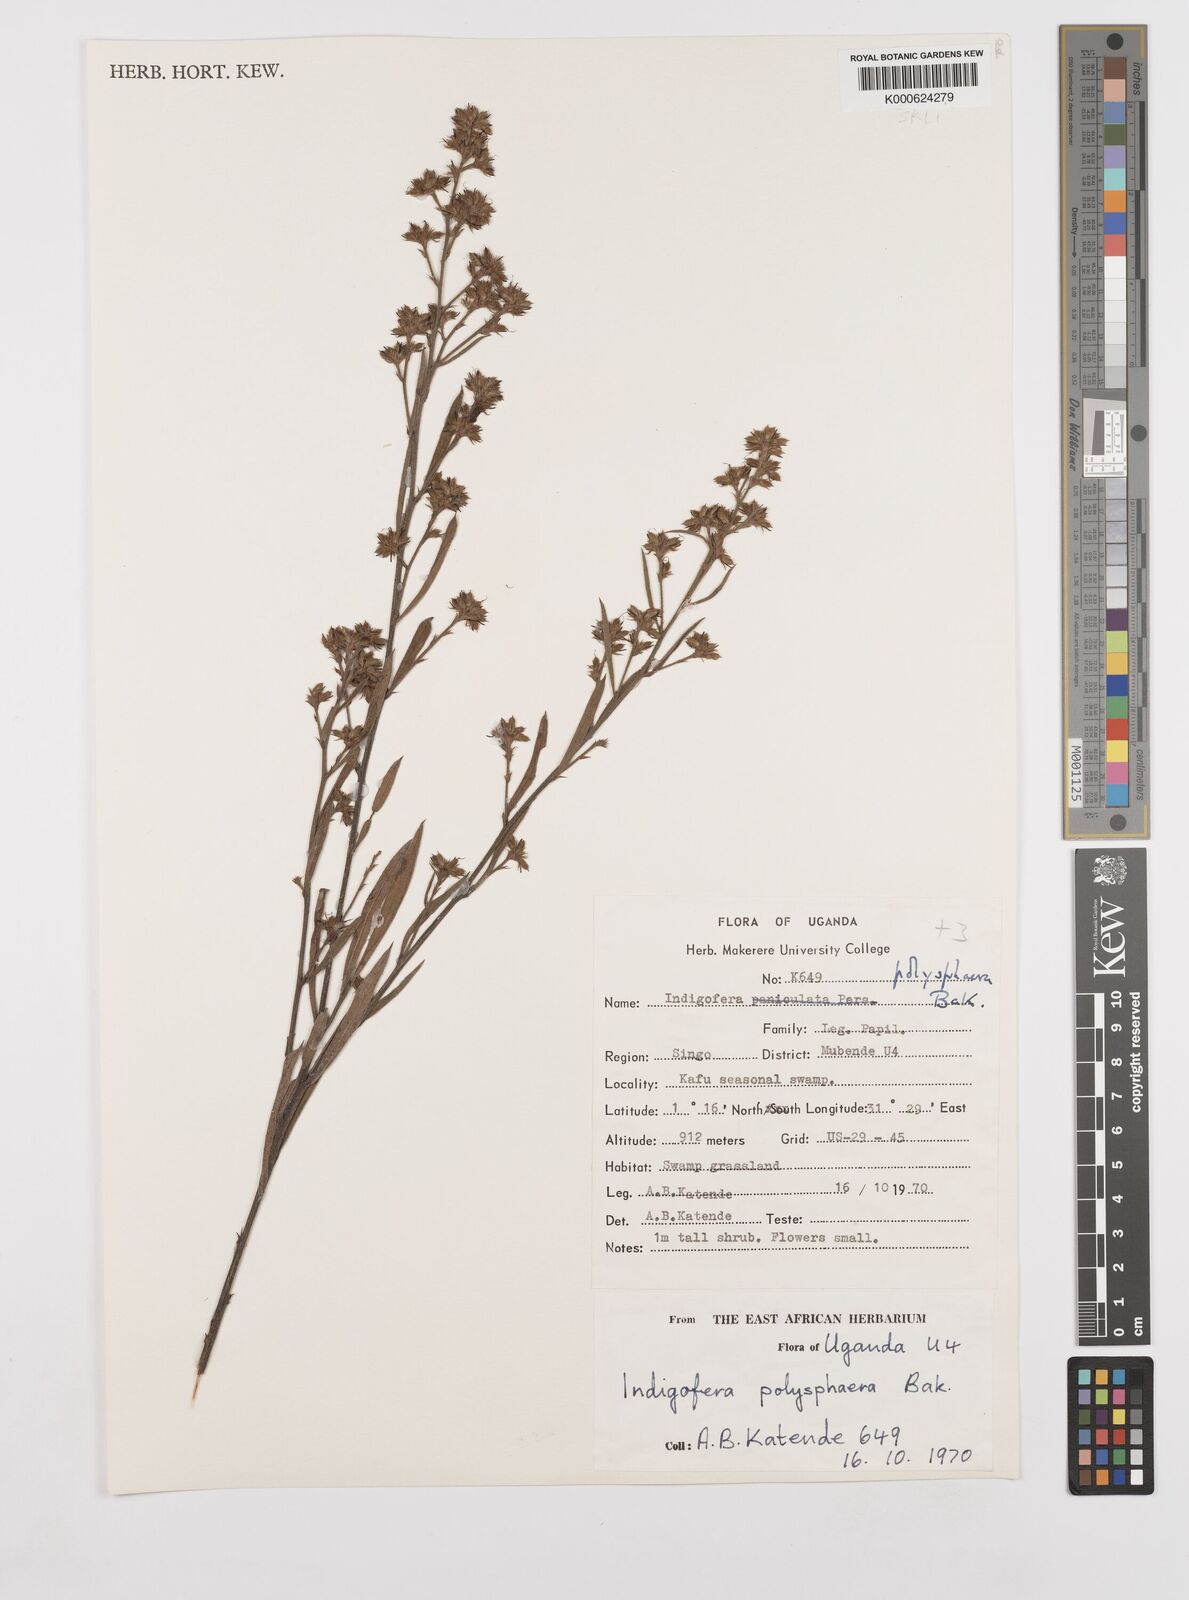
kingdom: Plantae
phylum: Tracheophyta
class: Magnoliopsida
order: Fabales
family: Fabaceae
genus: Indigofera
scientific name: Indigofera polysphaera
